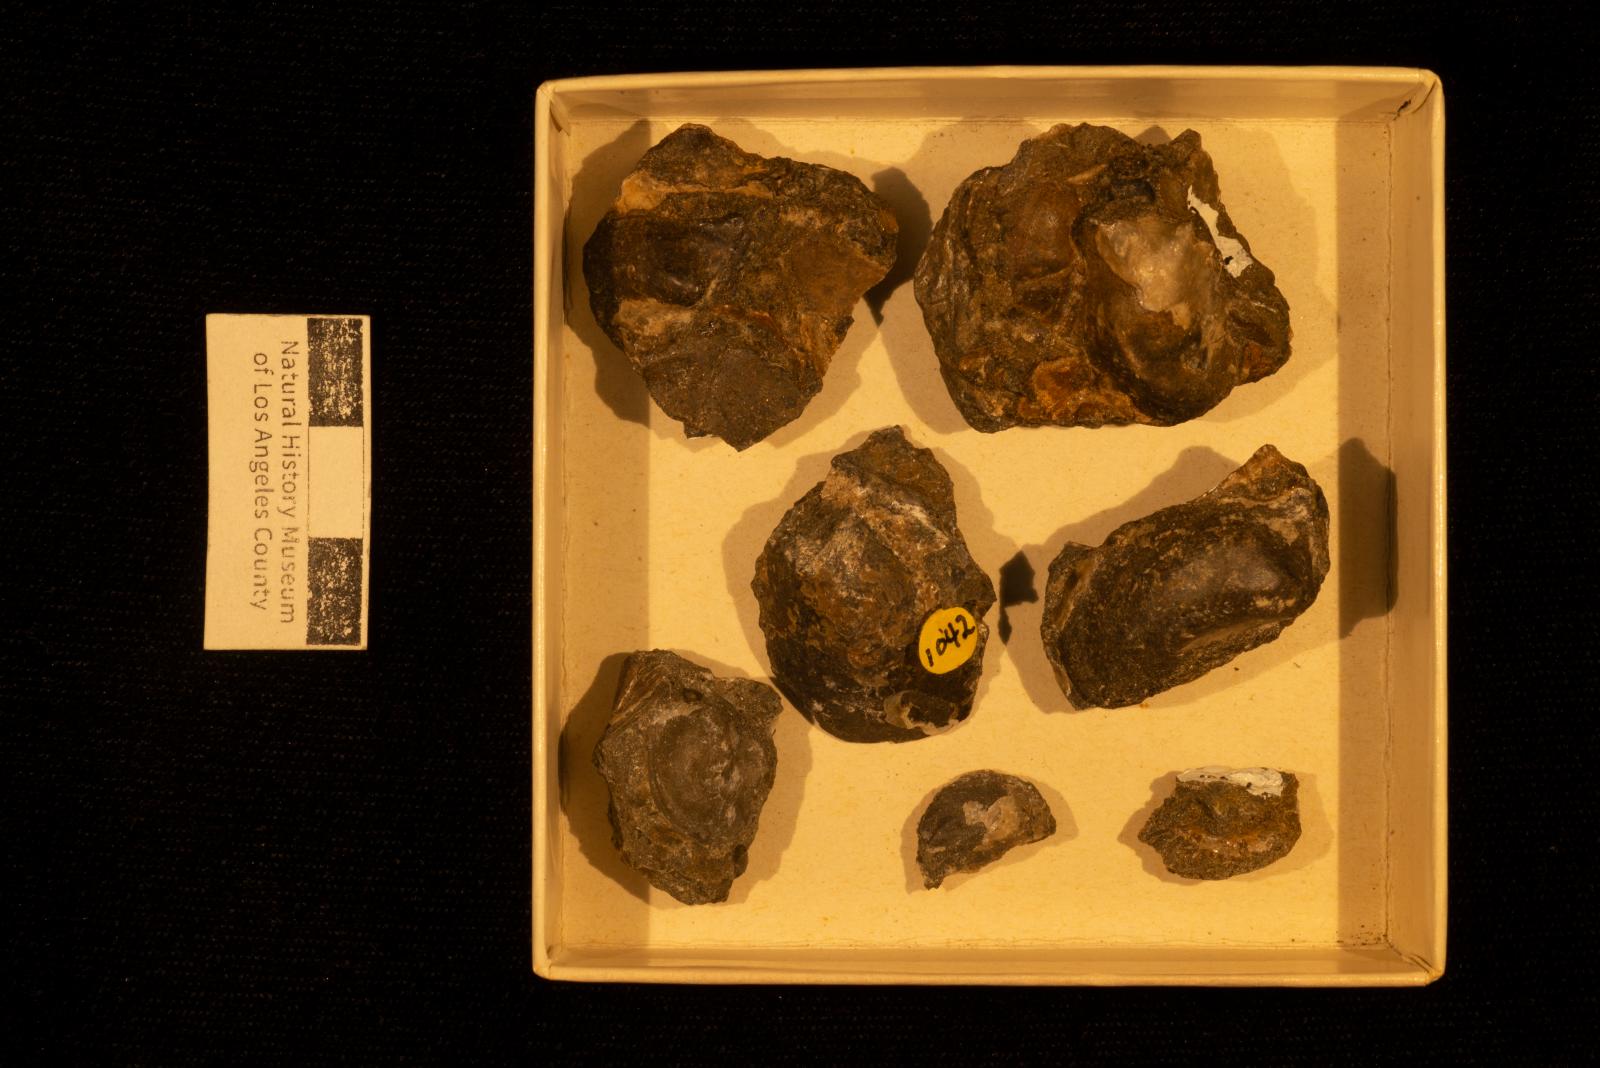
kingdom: Animalia
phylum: Mollusca
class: Bivalvia
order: Ostreida
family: Pteriidae
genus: Pteria
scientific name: Pteria pellucida
